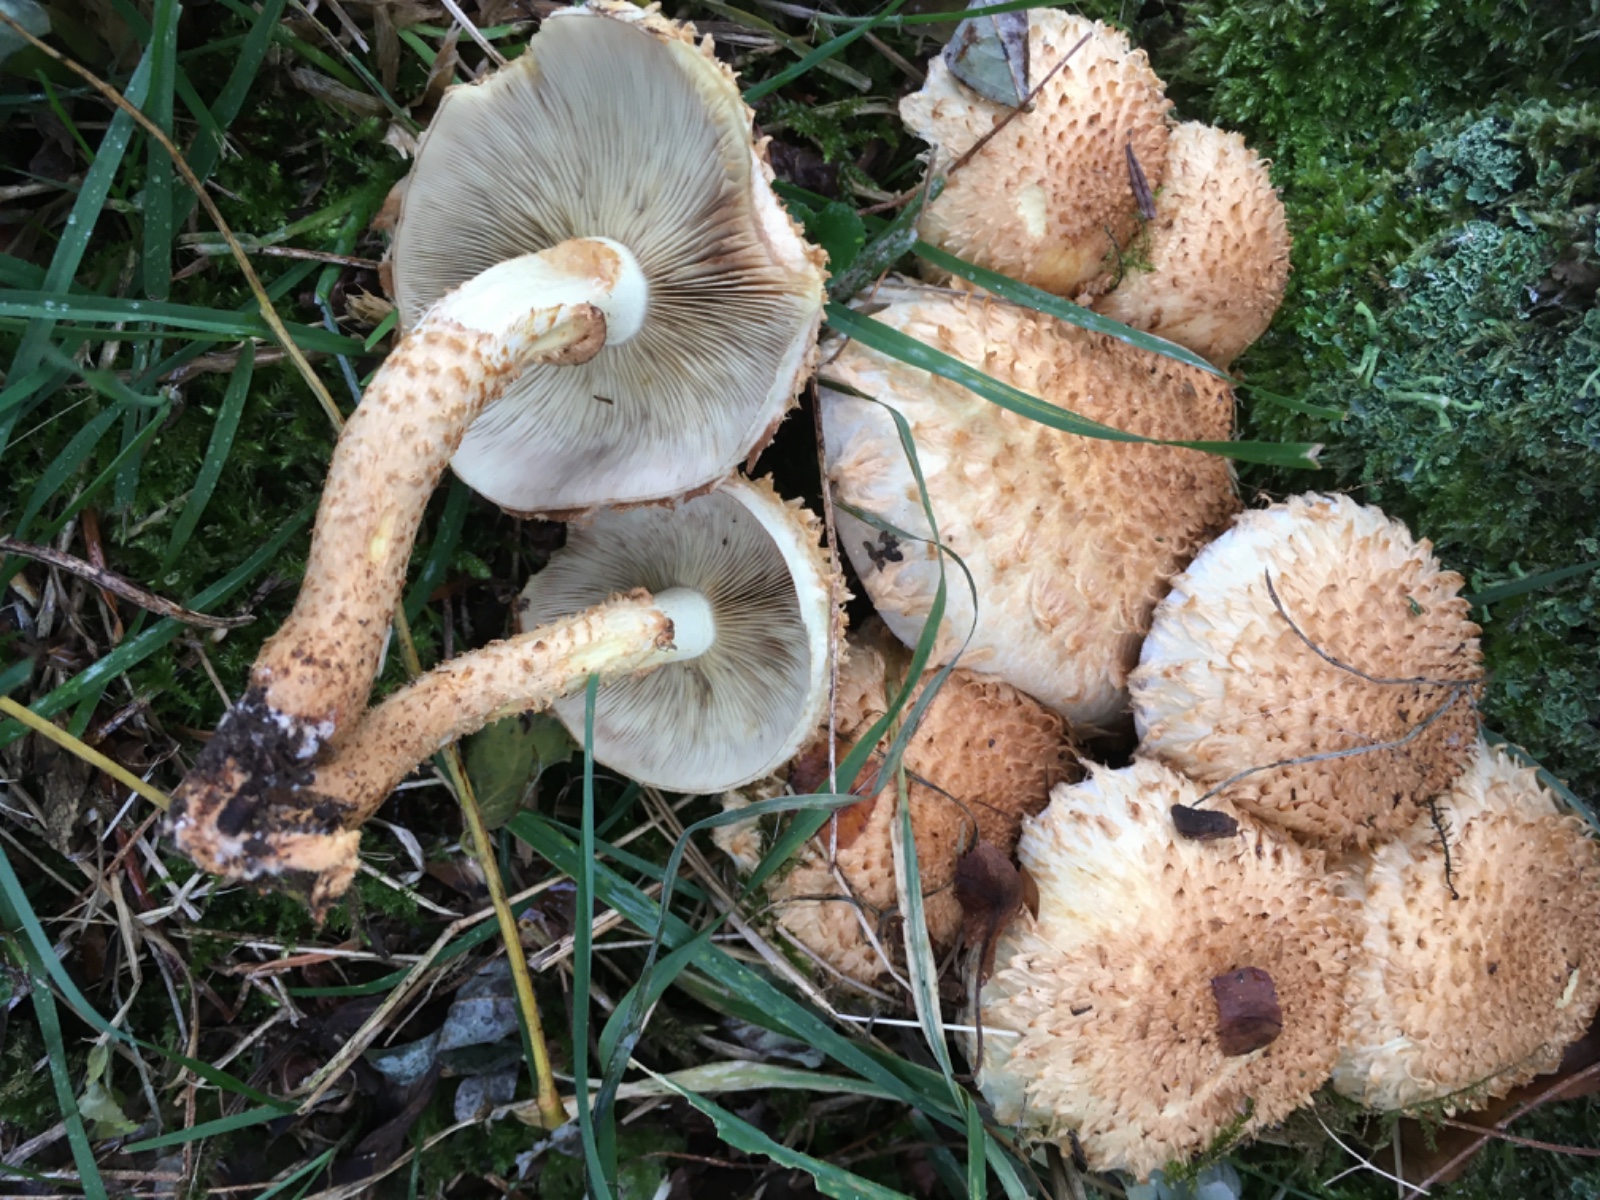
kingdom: Fungi
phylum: Basidiomycota
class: Agaricomycetes
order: Agaricales
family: Strophariaceae
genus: Pholiota
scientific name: Pholiota squarrosa
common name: krumskællet skælhat
